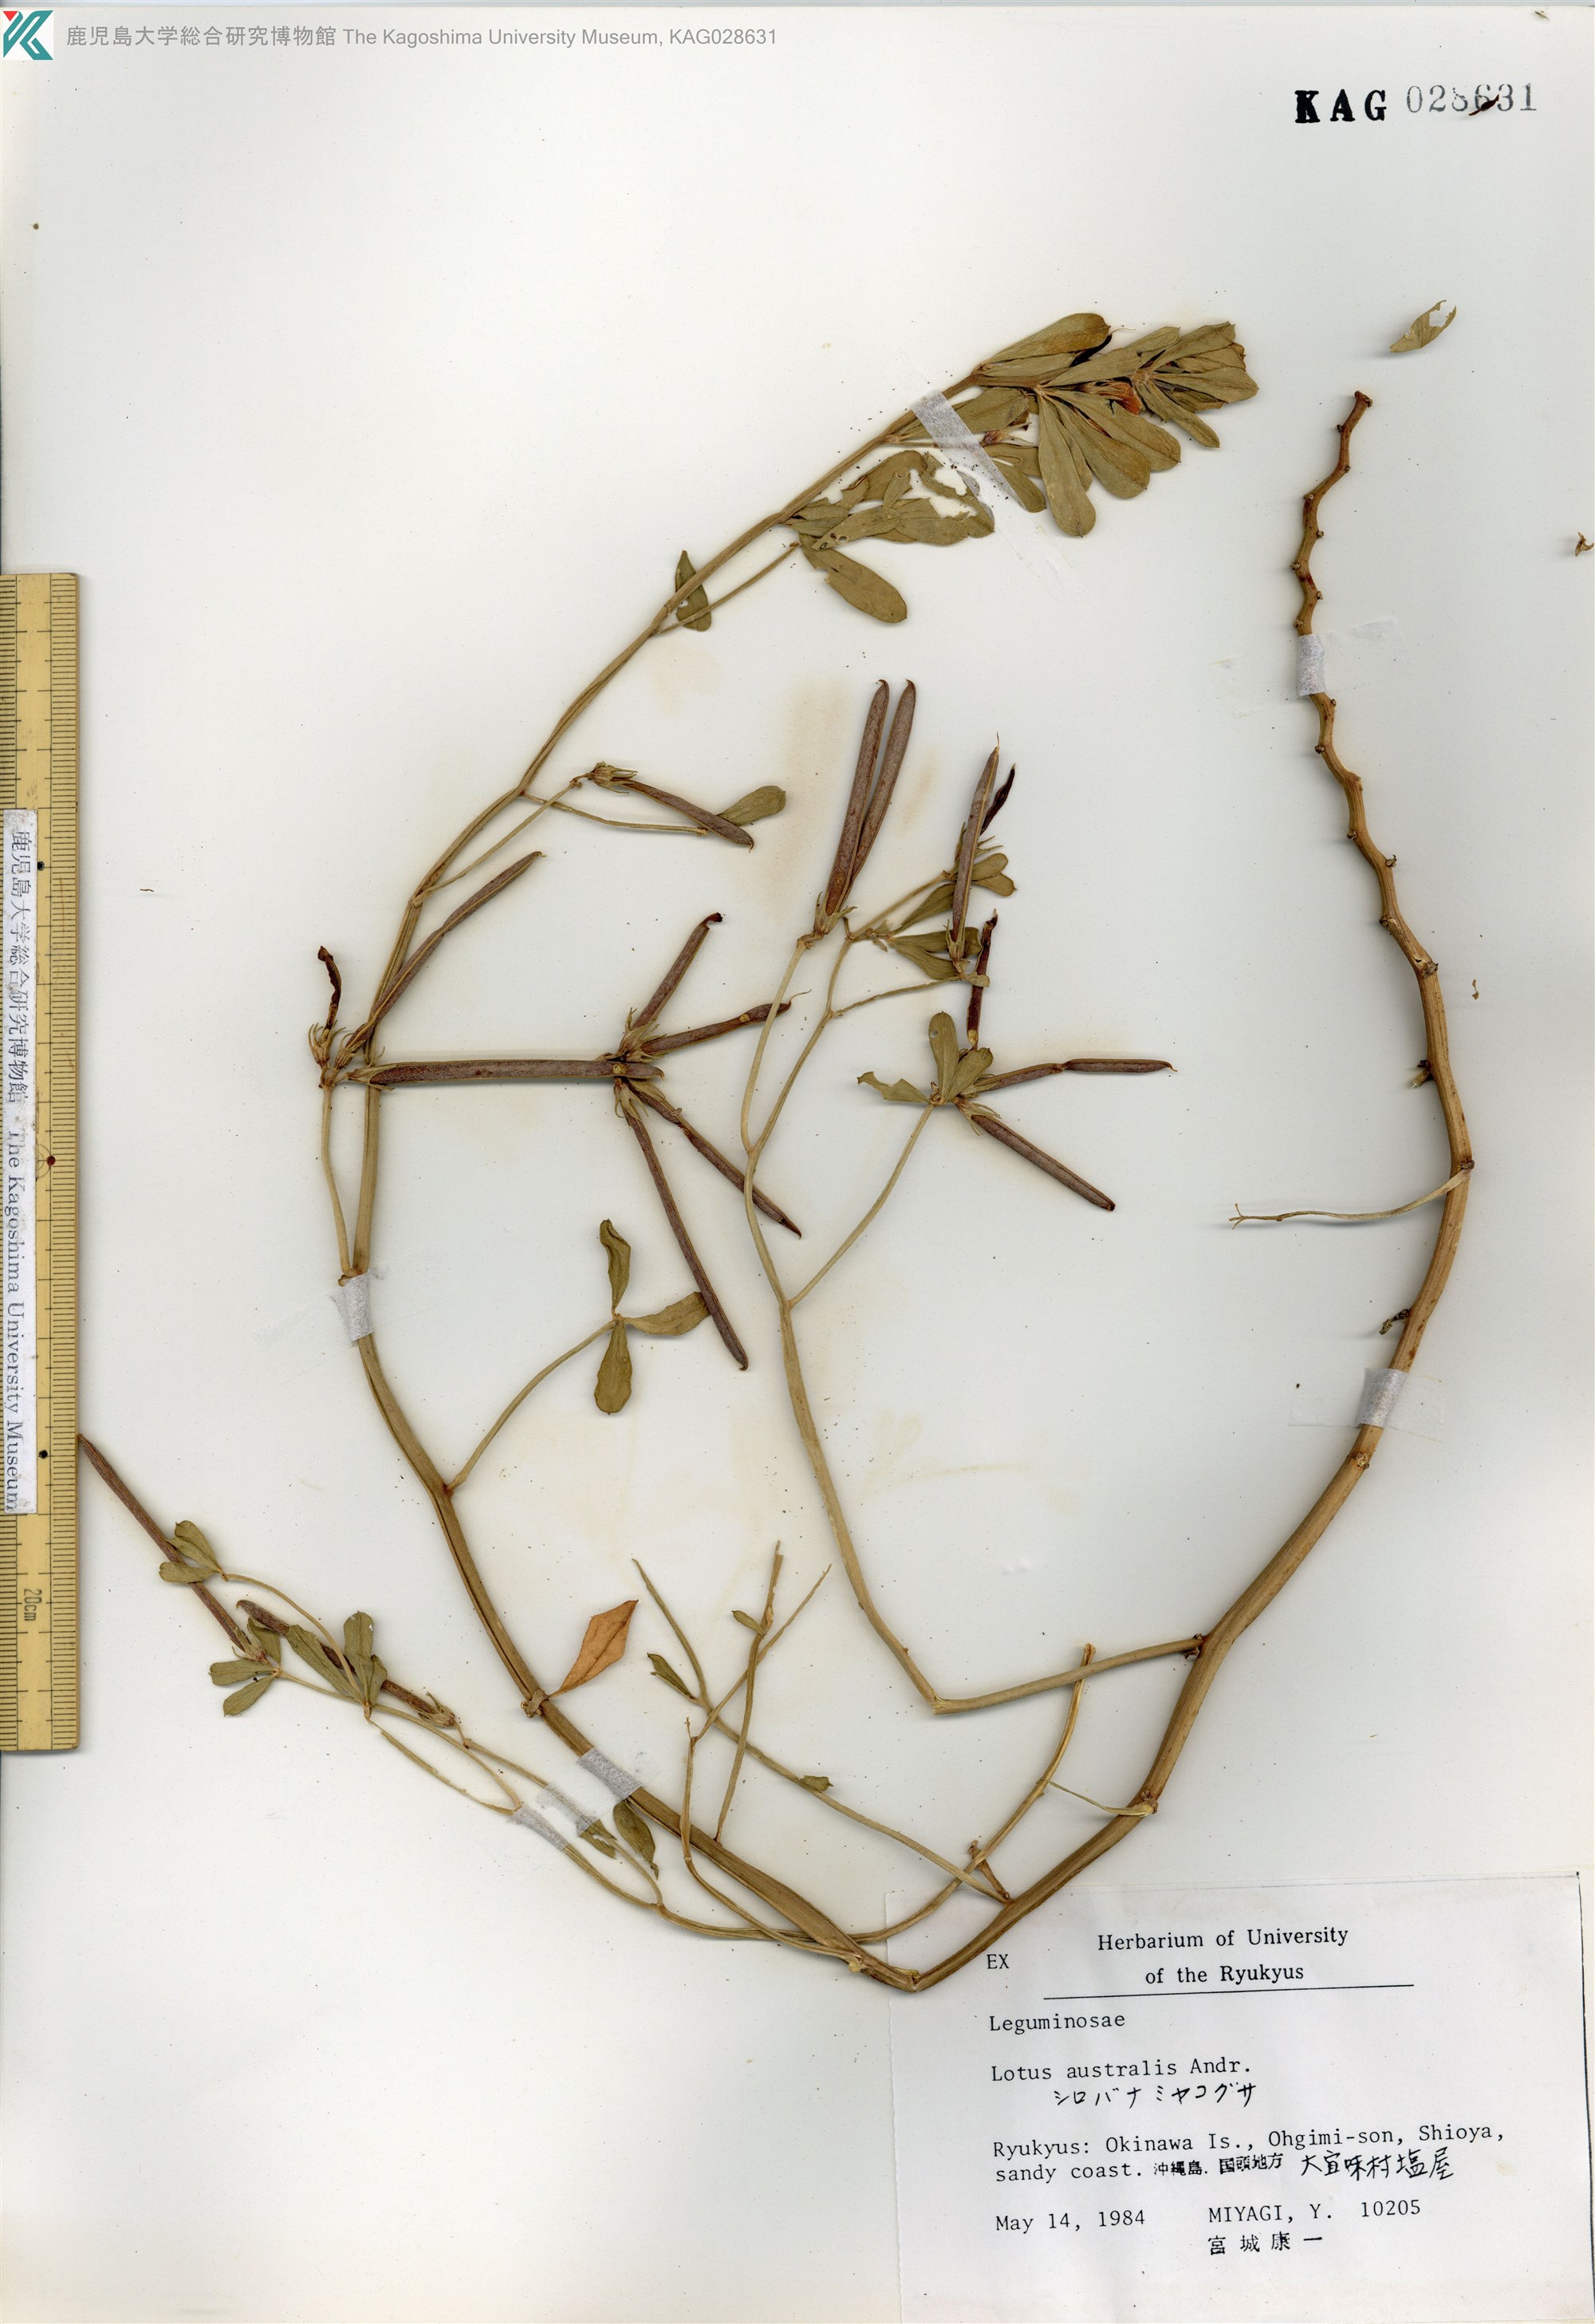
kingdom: Plantae
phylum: Tracheophyta
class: Magnoliopsida
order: Fabales
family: Fabaceae
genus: Lotus
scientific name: Lotus taitungensis
